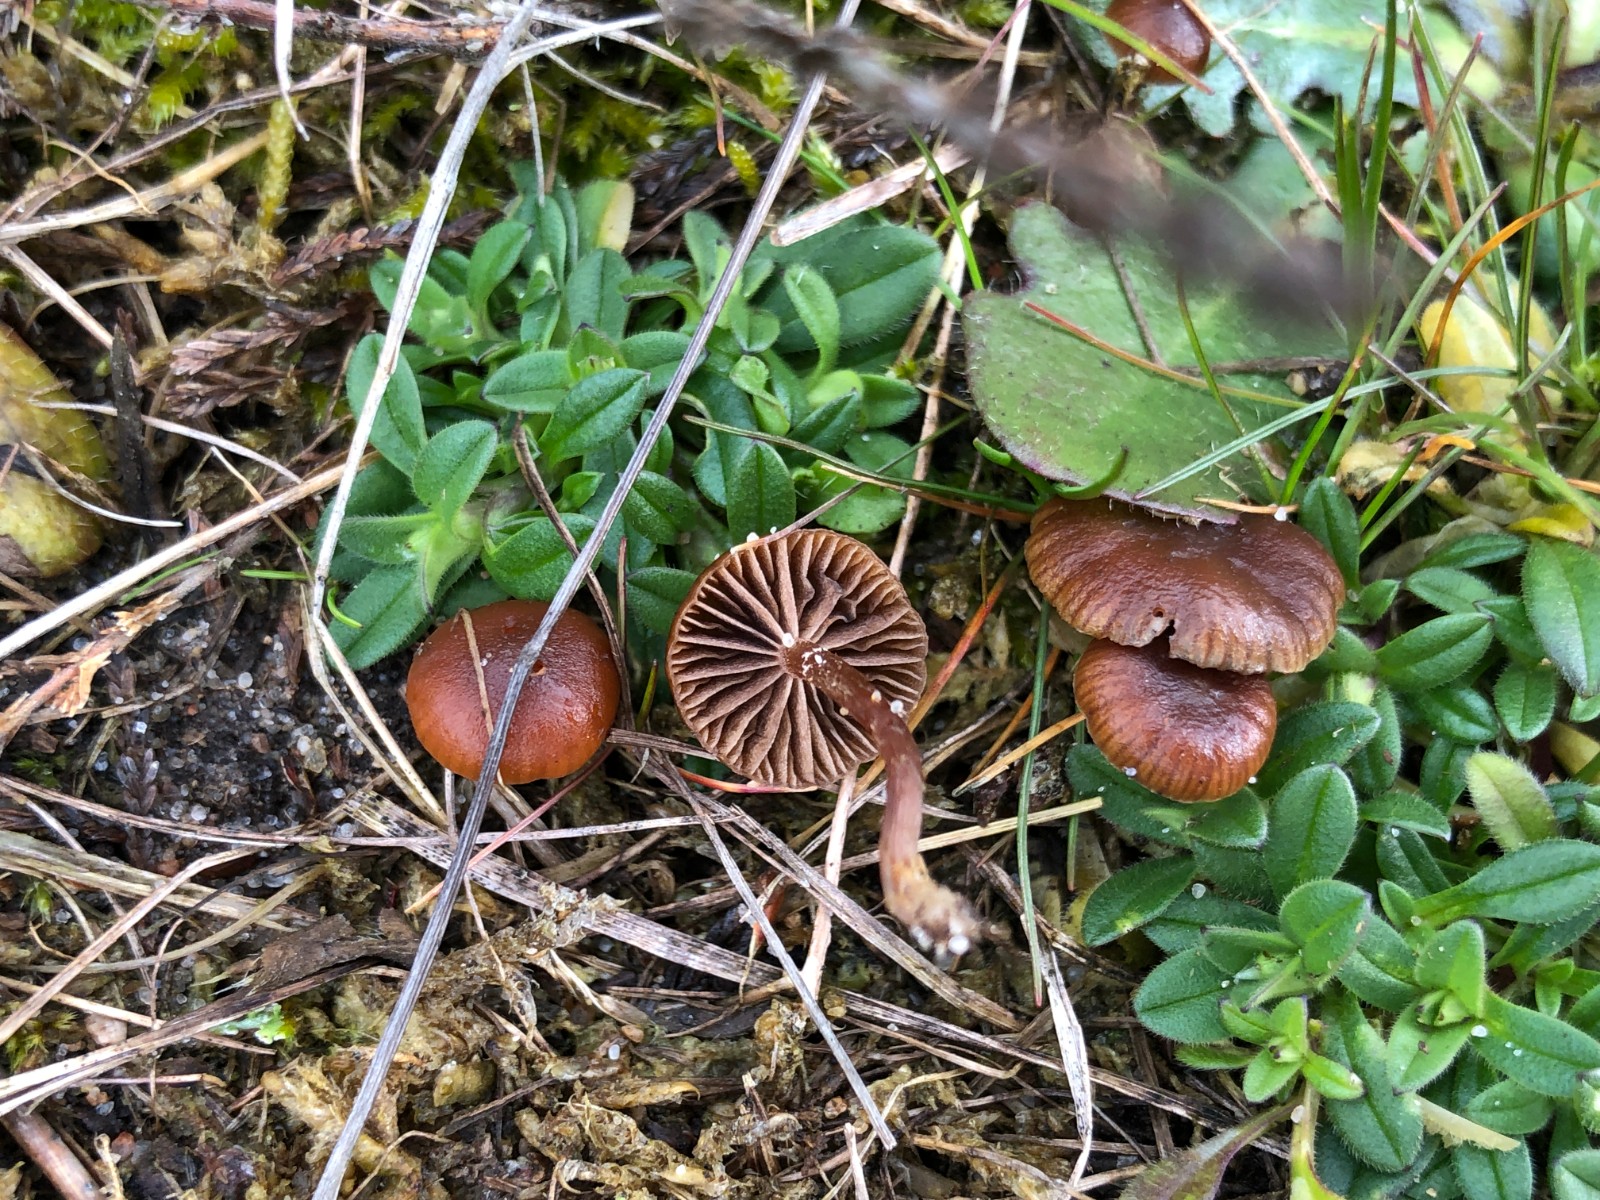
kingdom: Fungi
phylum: Basidiomycota
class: Agaricomycetes
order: Agaricales
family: Strophariaceae
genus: Deconica
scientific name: Deconica montana
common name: rødbrun stråhat
